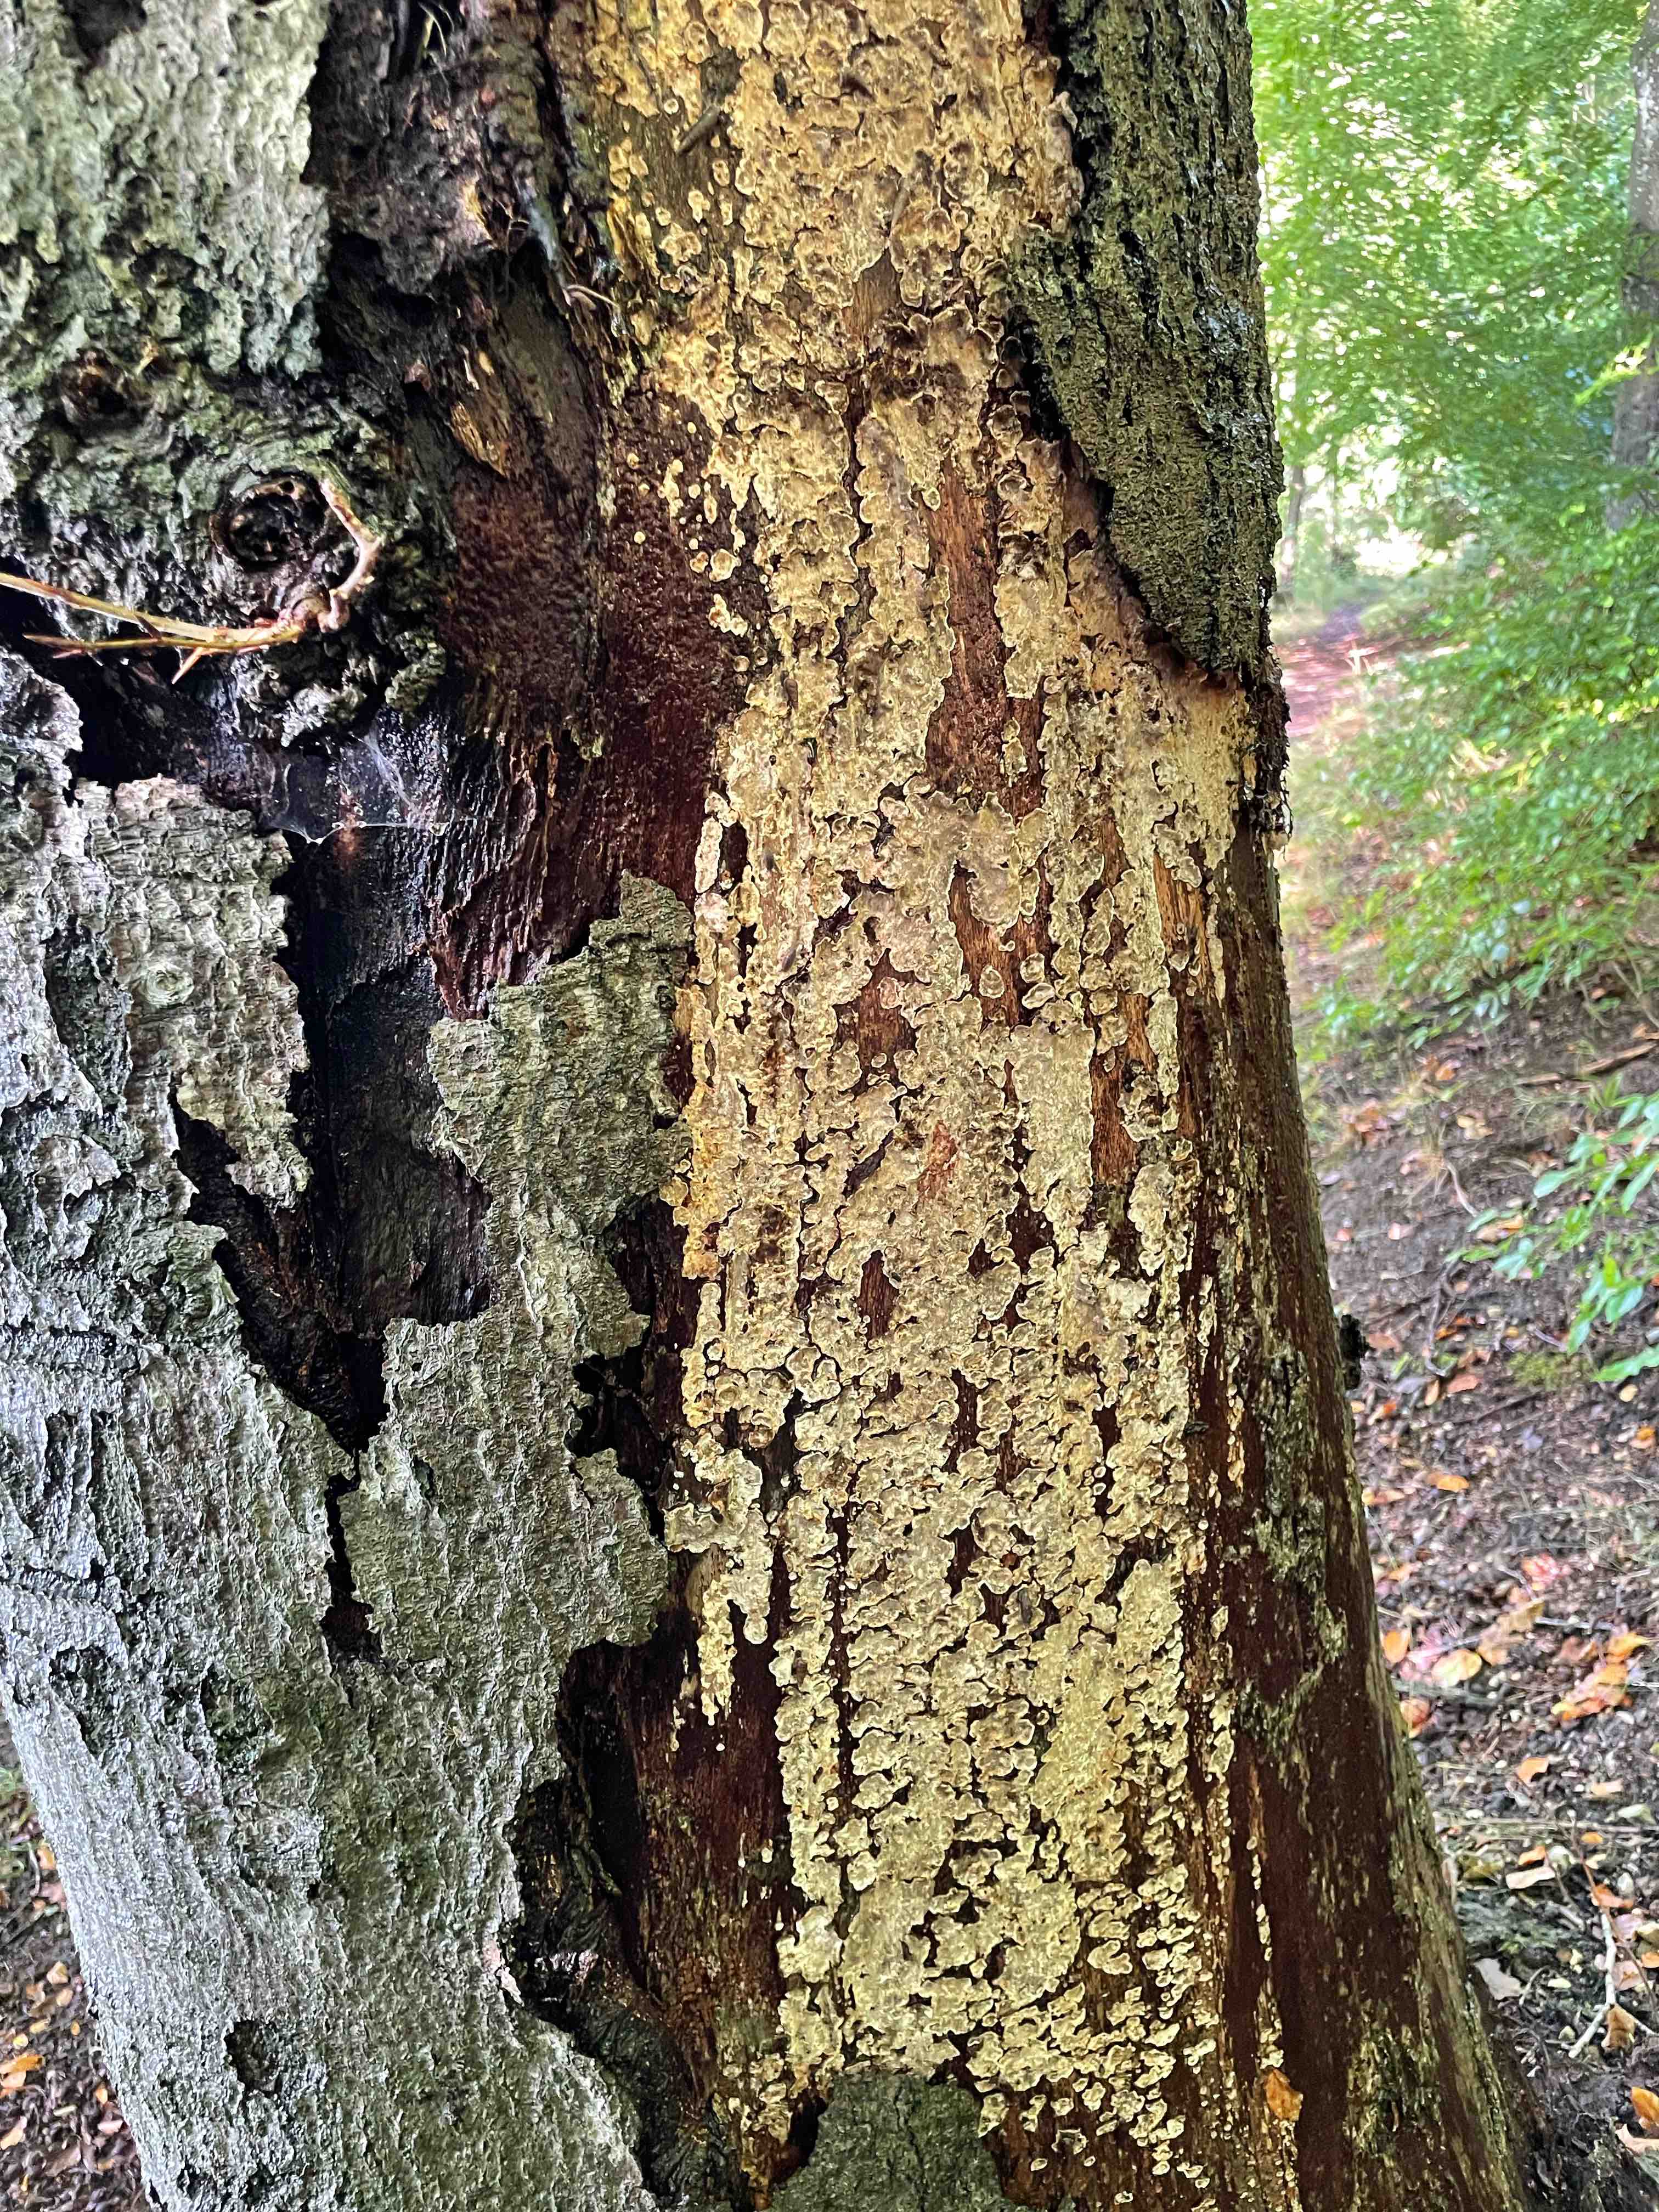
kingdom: Fungi
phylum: Basidiomycota
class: Agaricomycetes
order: Russulales
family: Stereaceae
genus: Stereum
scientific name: Stereum rugosum
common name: rynket lædersvamp
